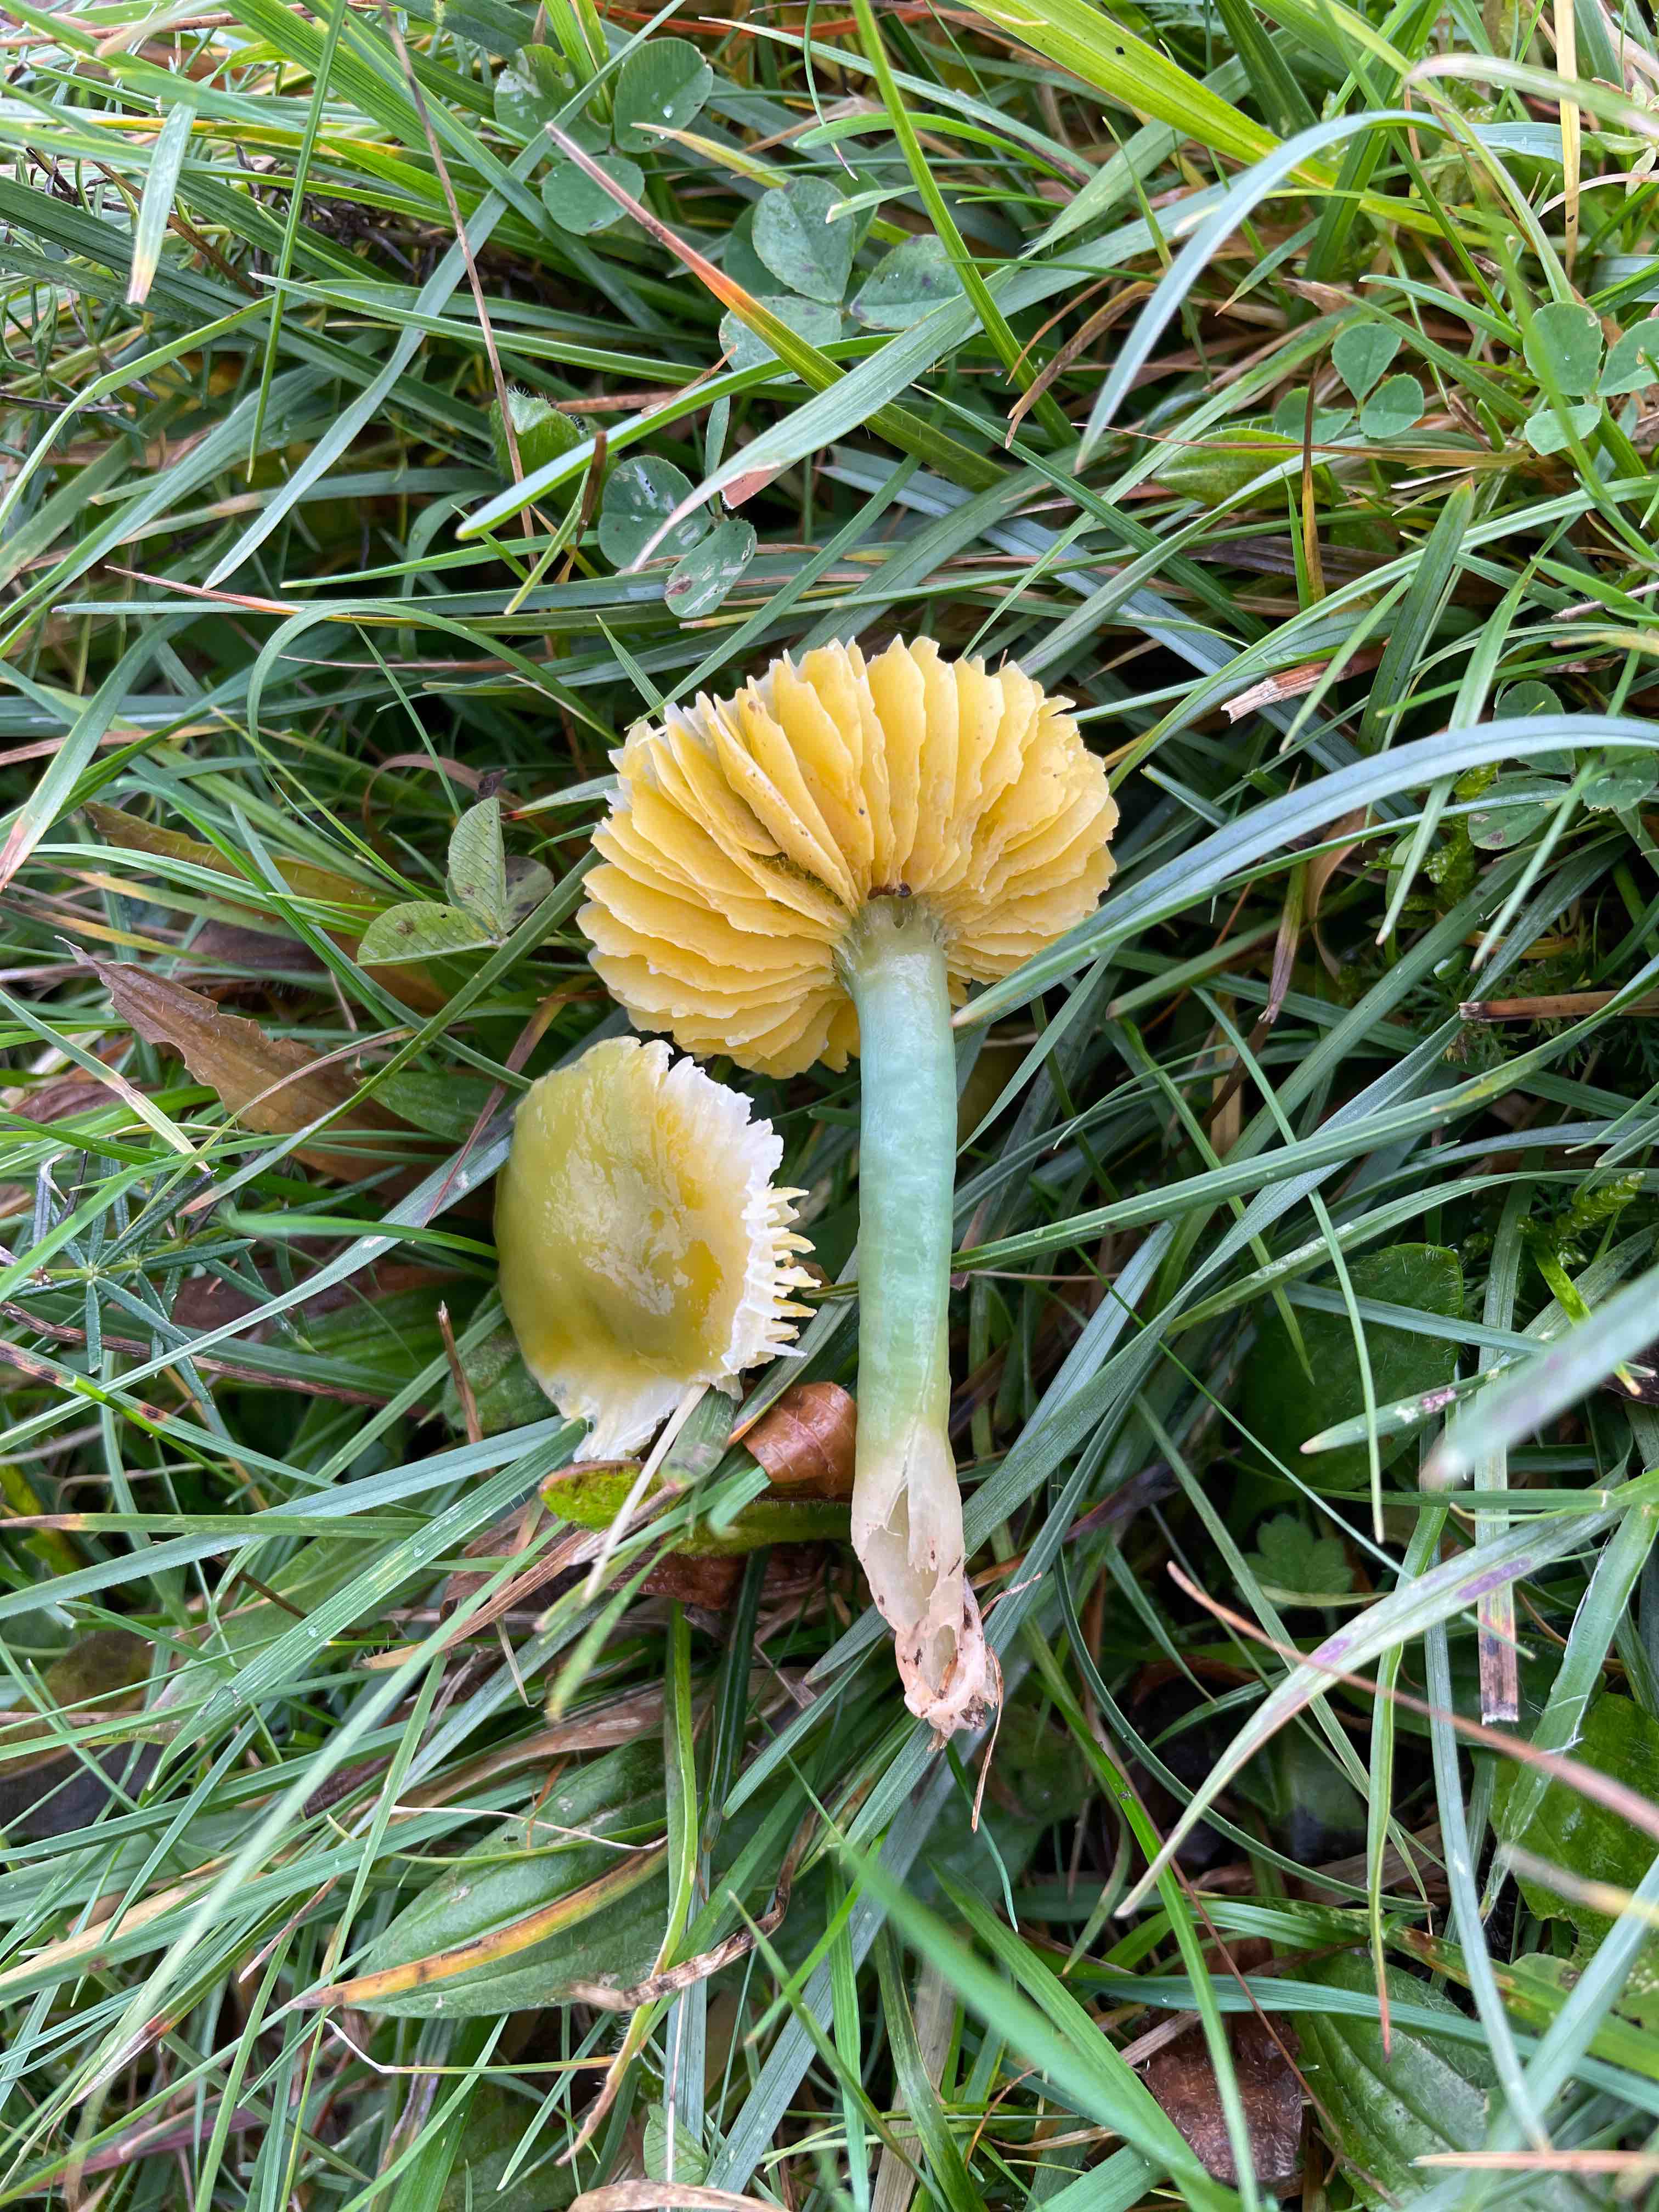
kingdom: Fungi
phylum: Basidiomycota
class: Agaricomycetes
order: Agaricales
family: Hygrophoraceae
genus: Gliophorus
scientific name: Gliophorus psittacinus
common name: papegøje-vokshat
